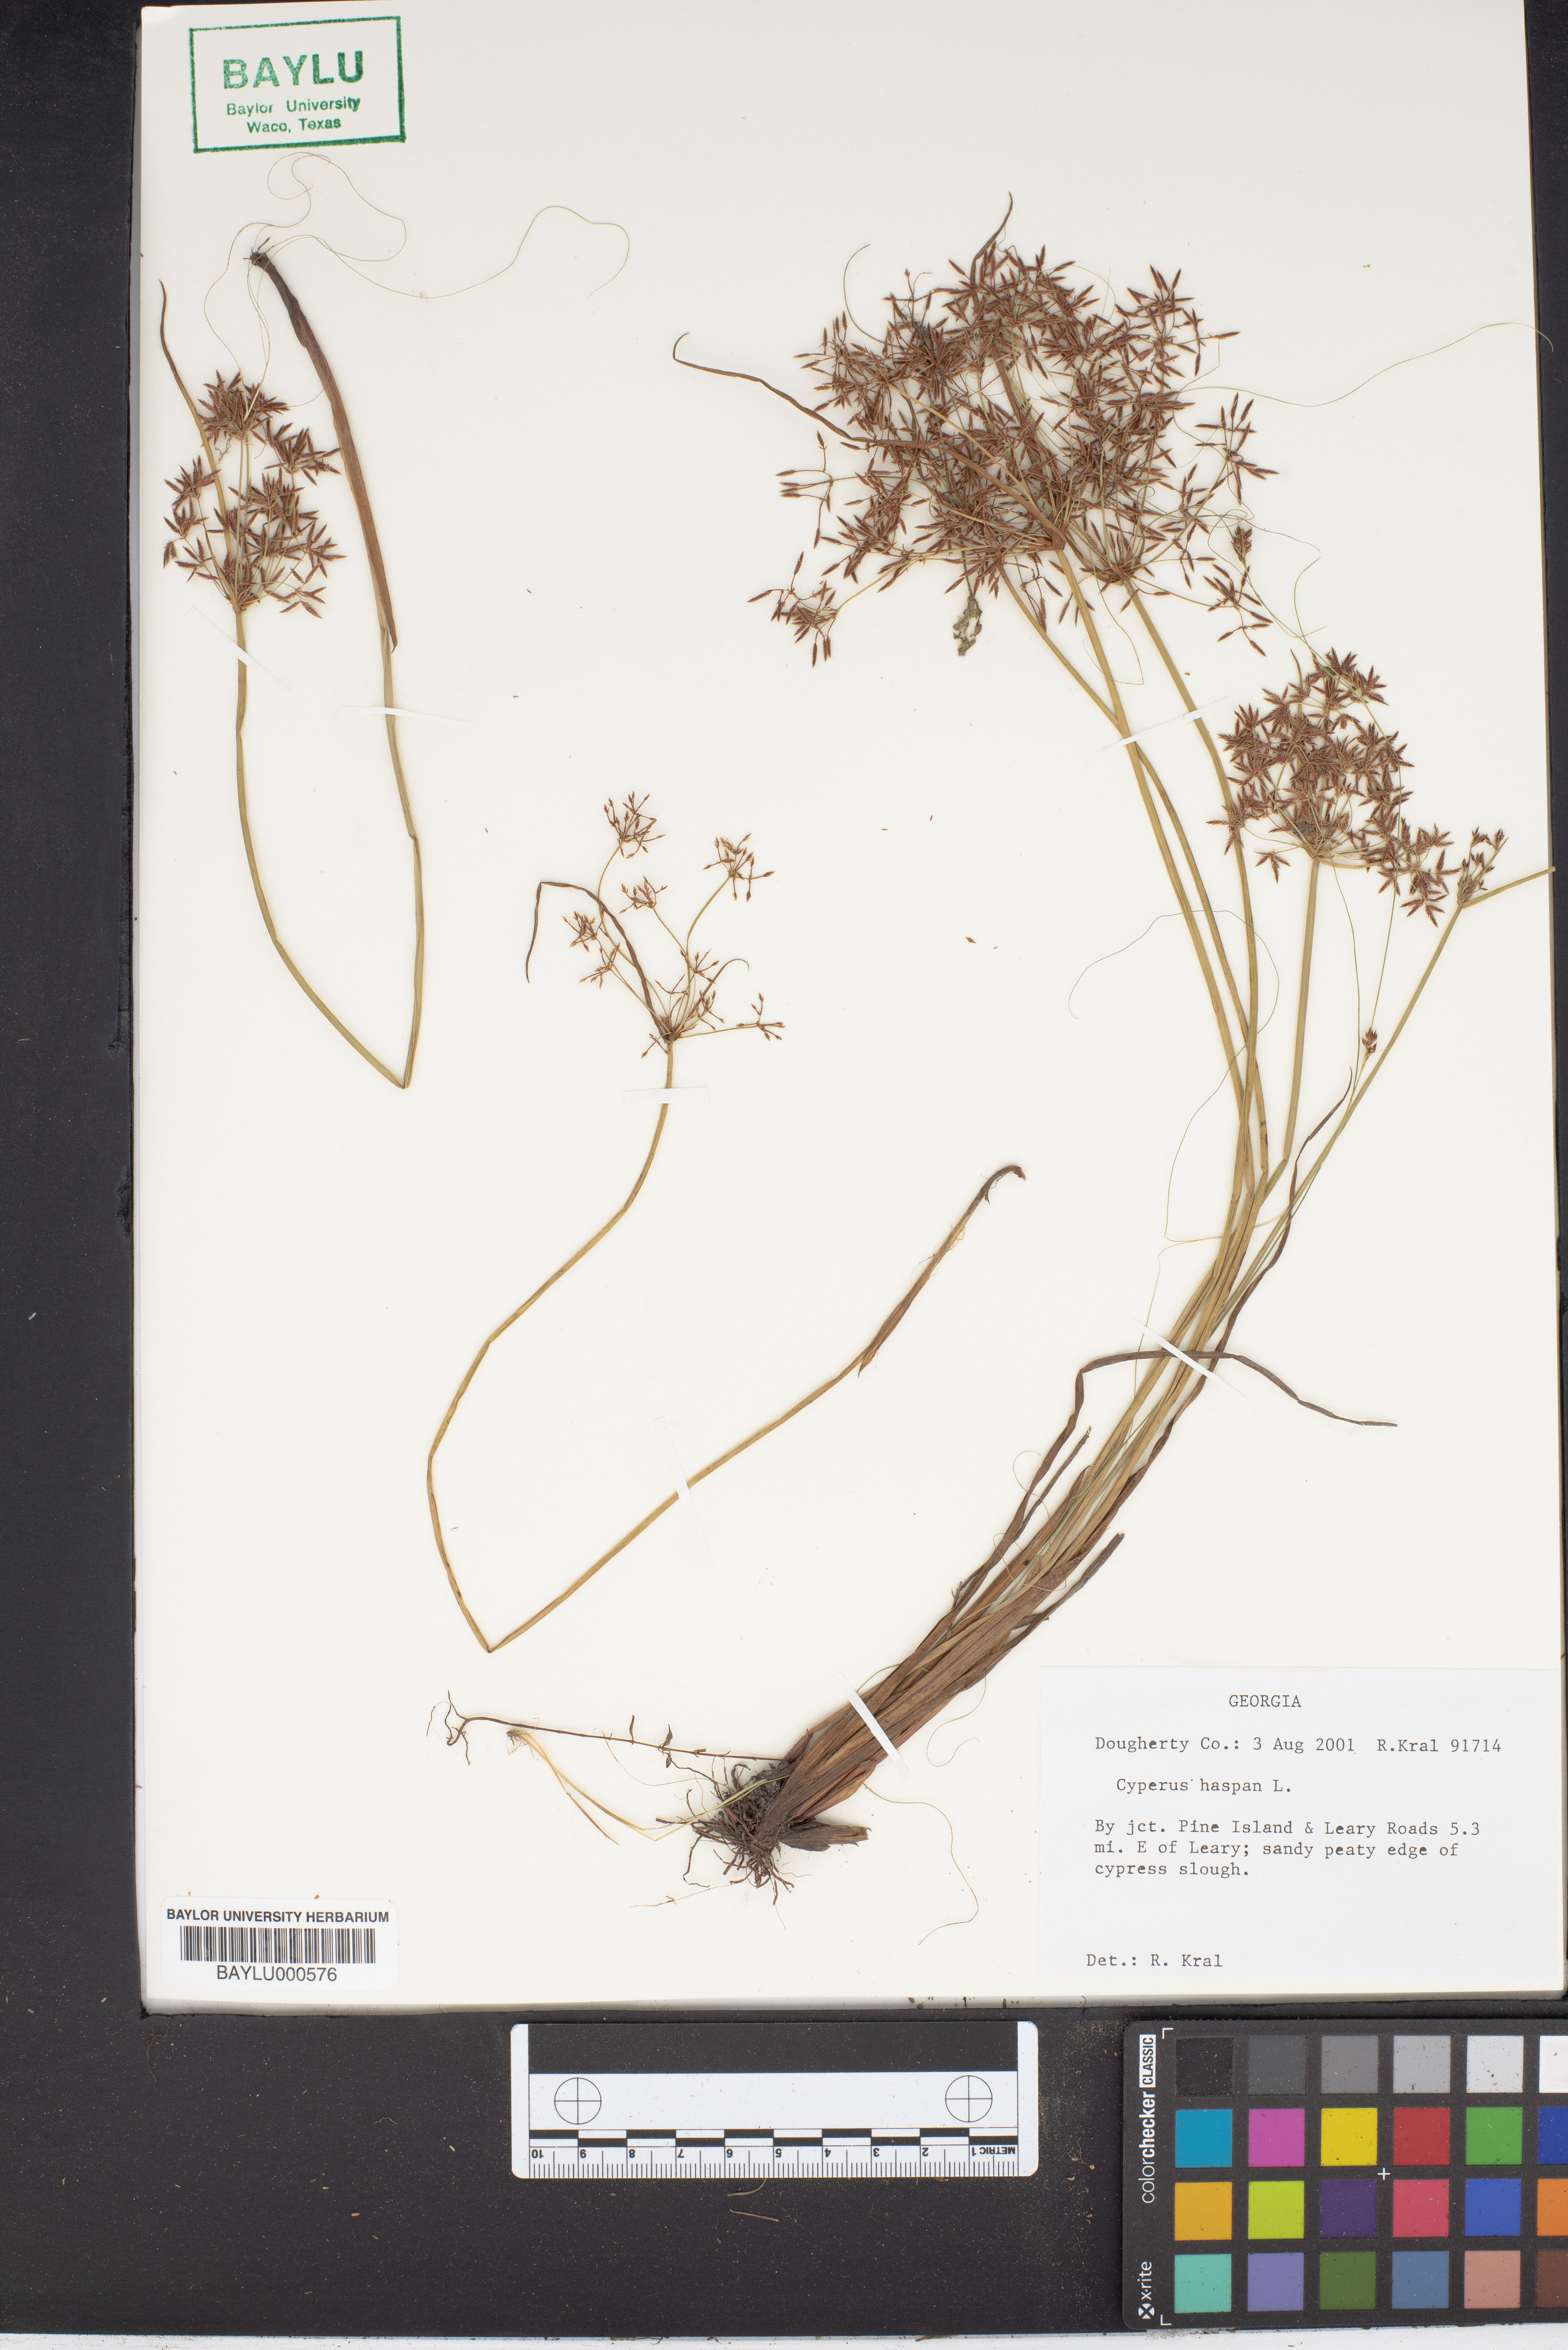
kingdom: Plantae
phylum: Tracheophyta
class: Liliopsida
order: Poales
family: Cyperaceae
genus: Cyperus
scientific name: Cyperus haspan
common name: Haspan flatsedge
